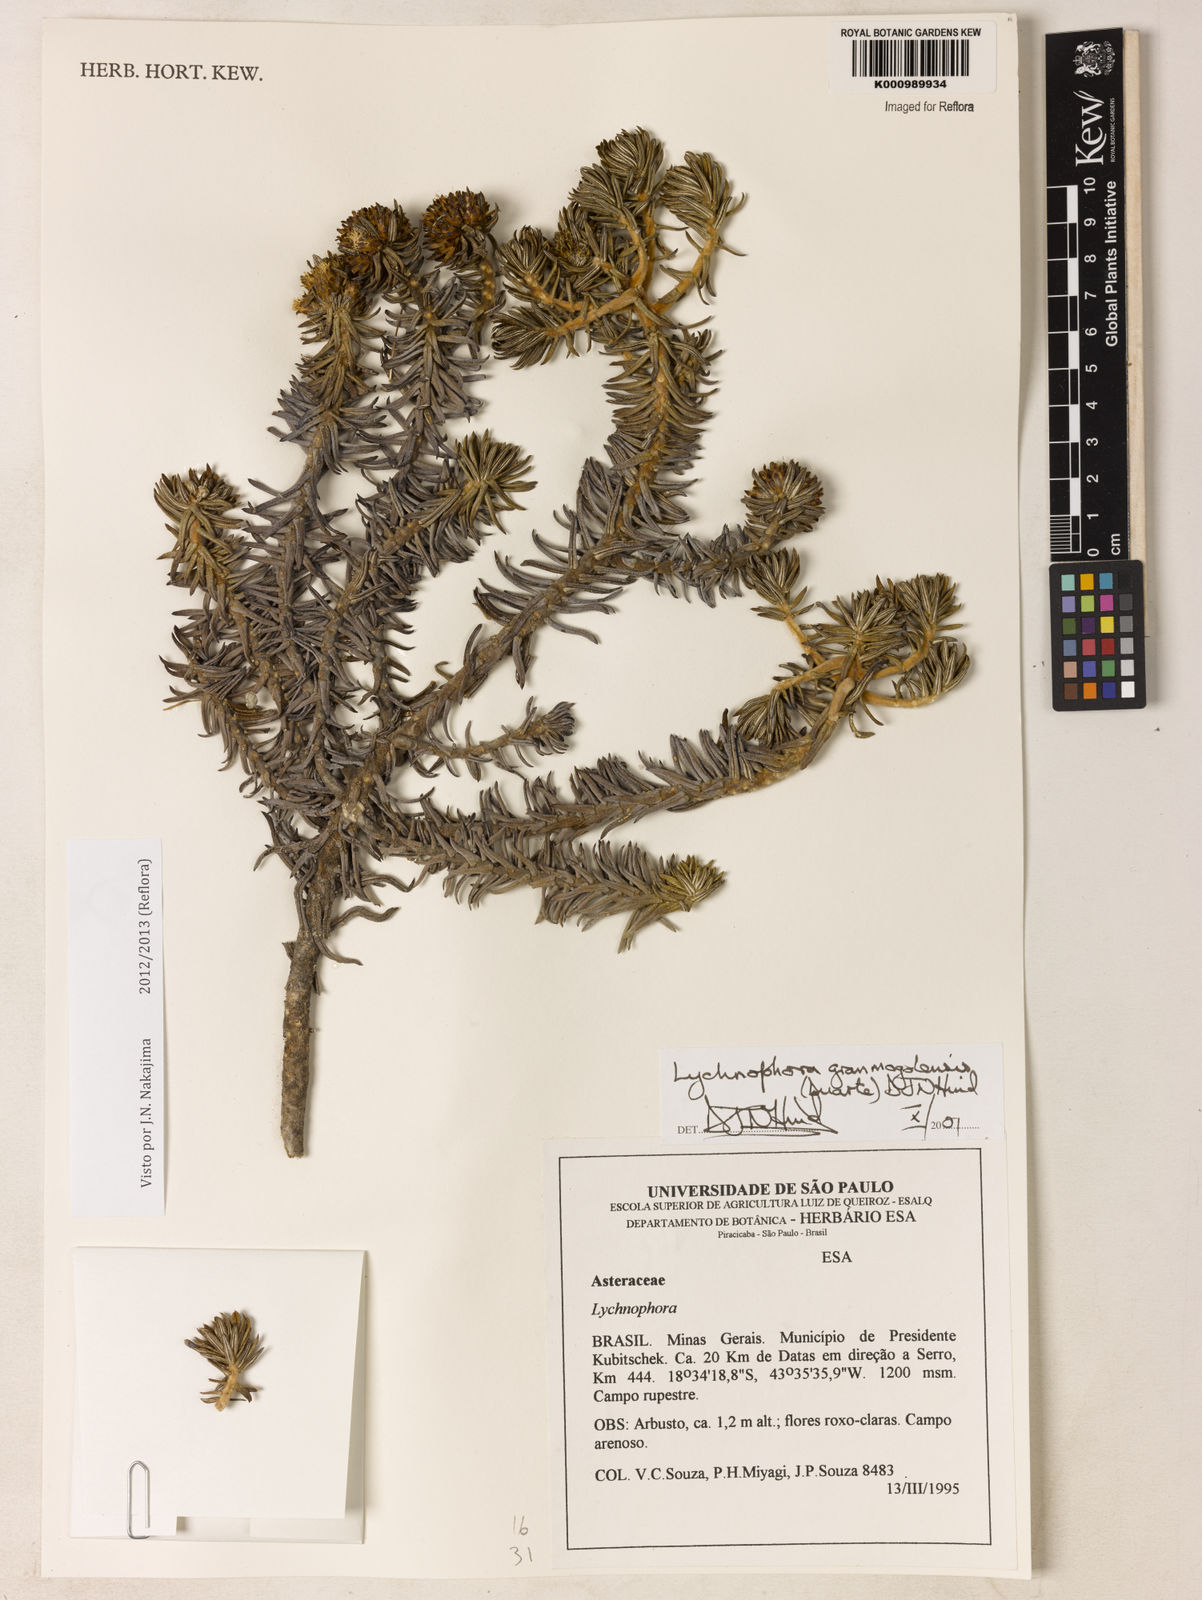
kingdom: Plantae
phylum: Tracheophyta
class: Magnoliopsida
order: Asterales
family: Asteraceae
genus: Lychnophora
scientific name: Lychnophora granmogolensis
